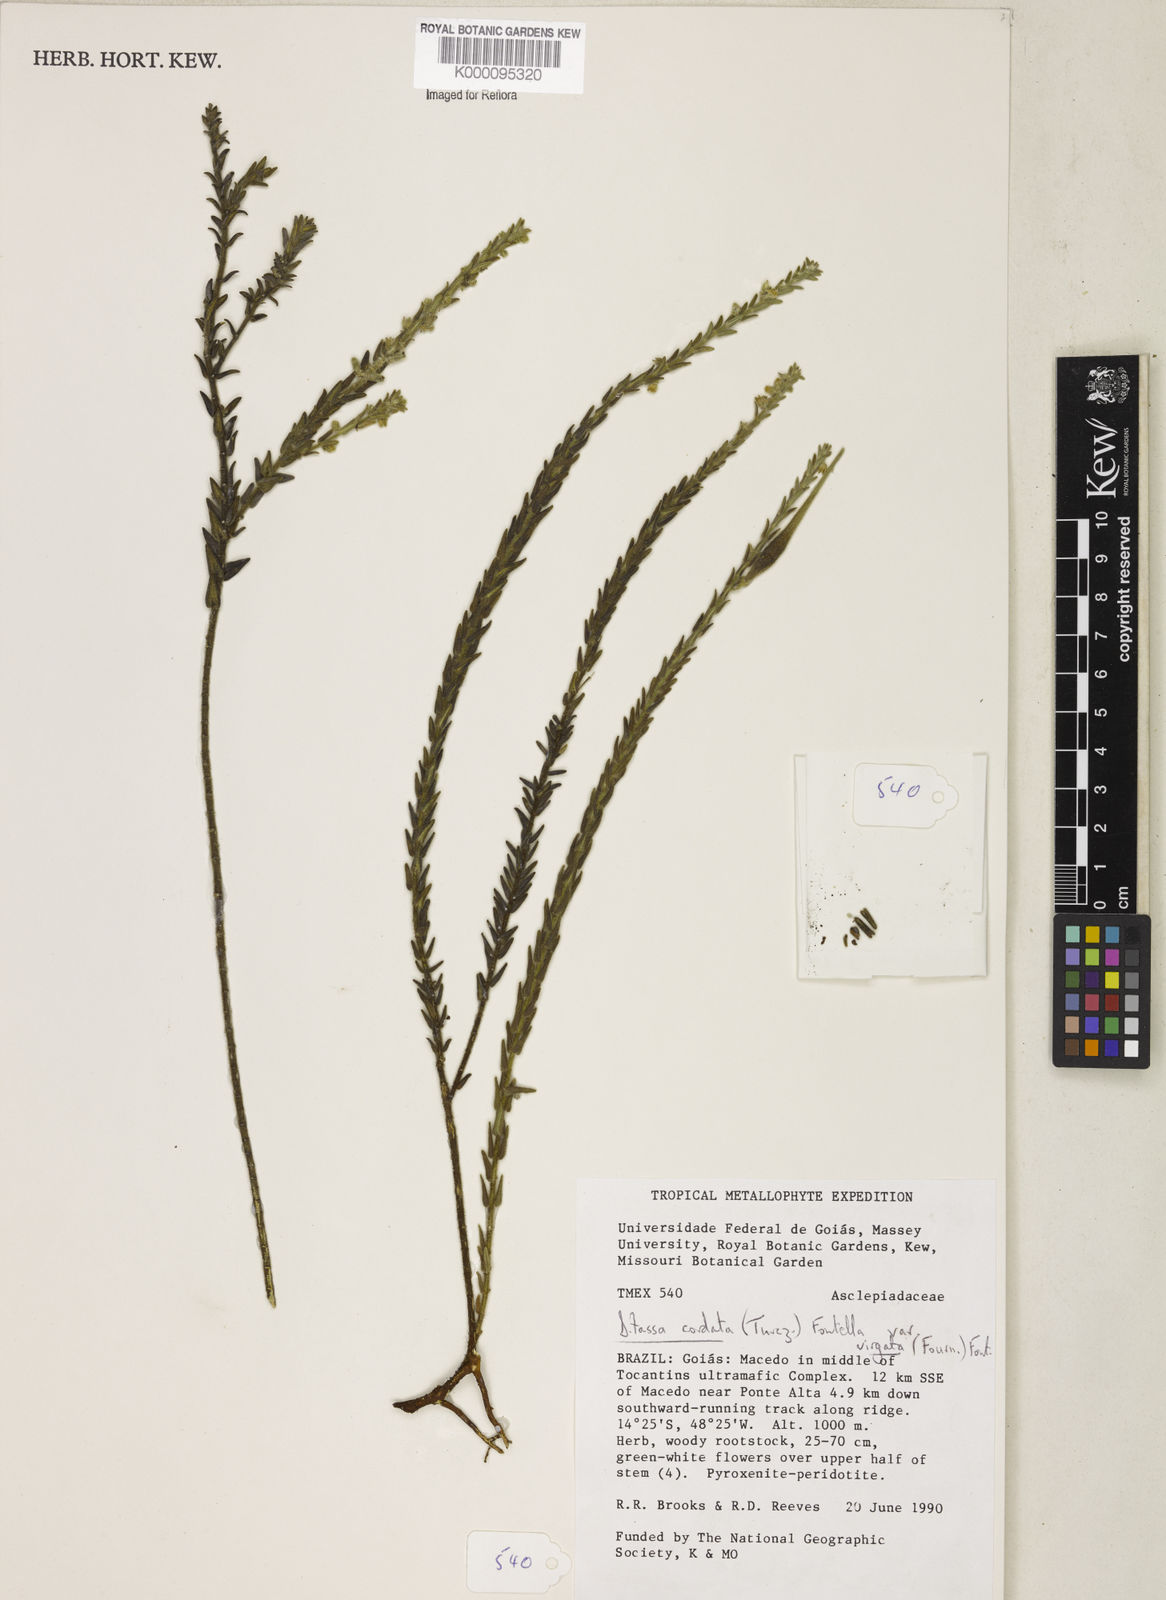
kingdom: Plantae
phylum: Tracheophyta
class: Magnoliopsida
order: Gentianales
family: Apocynaceae
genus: Minaria
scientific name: Minaria cordata
